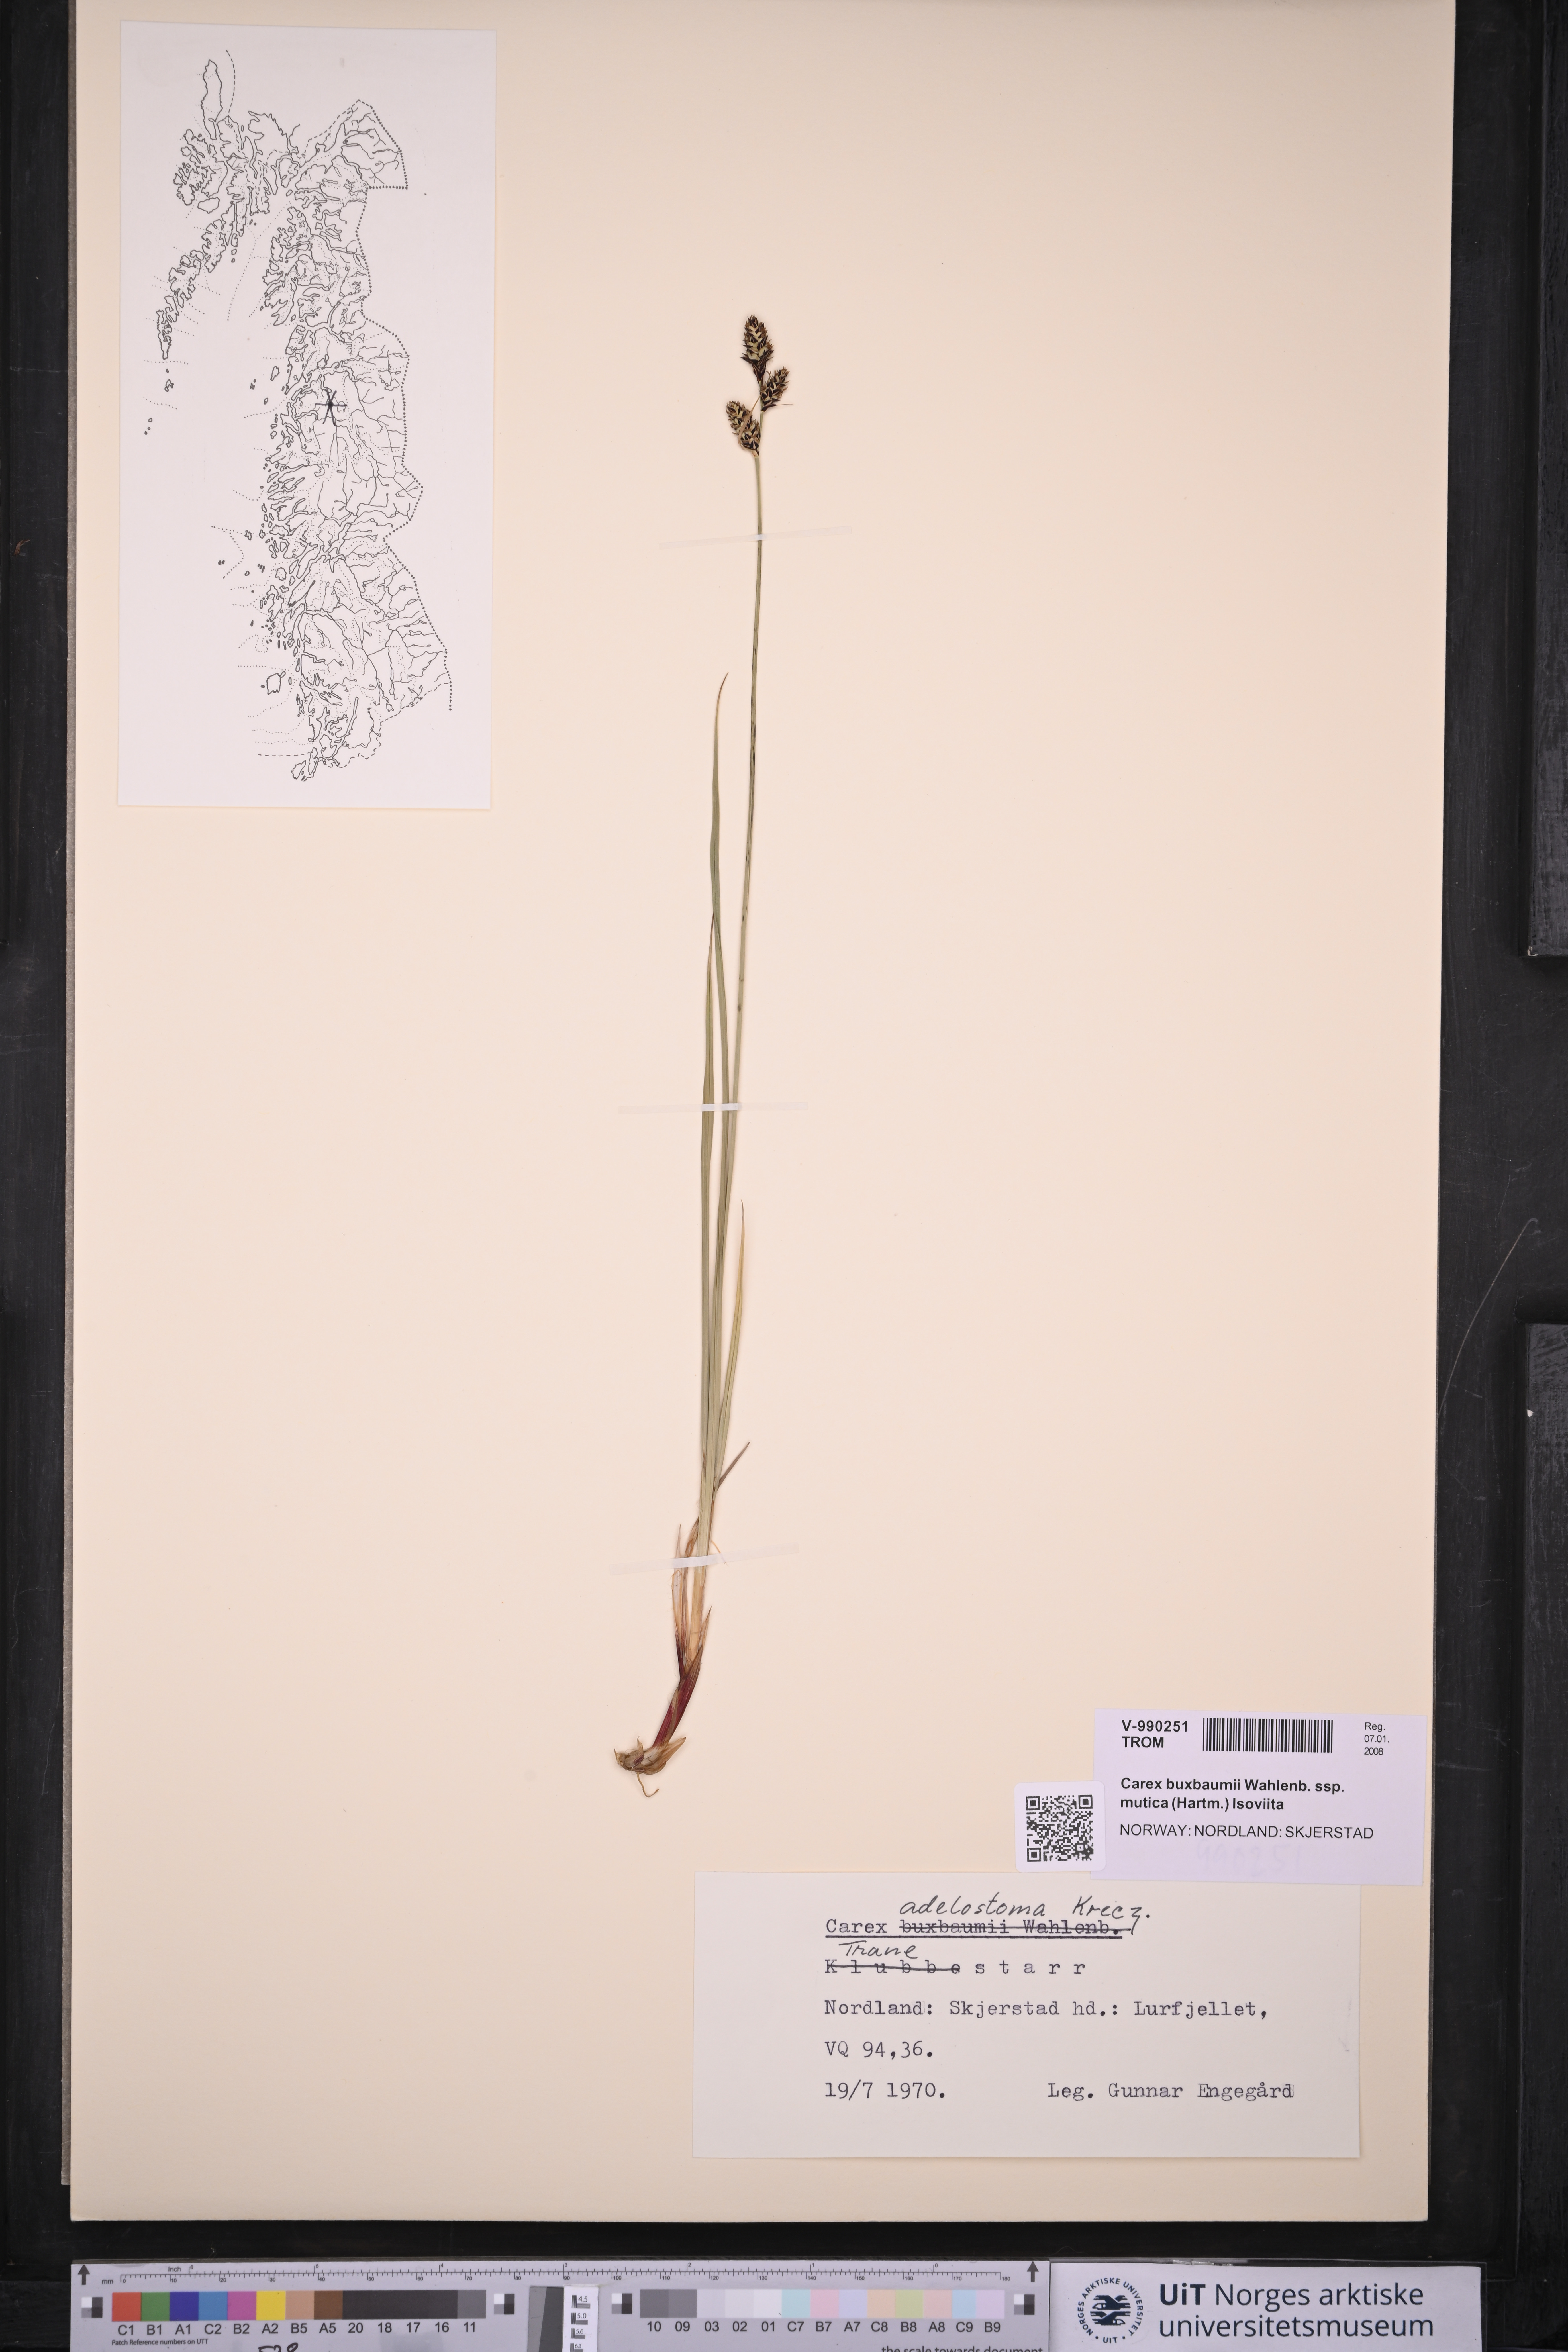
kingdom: Plantae
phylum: Tracheophyta
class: Liliopsida
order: Poales
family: Cyperaceae
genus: Carex
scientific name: Carex adelostoma
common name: Circumpolar sedge
